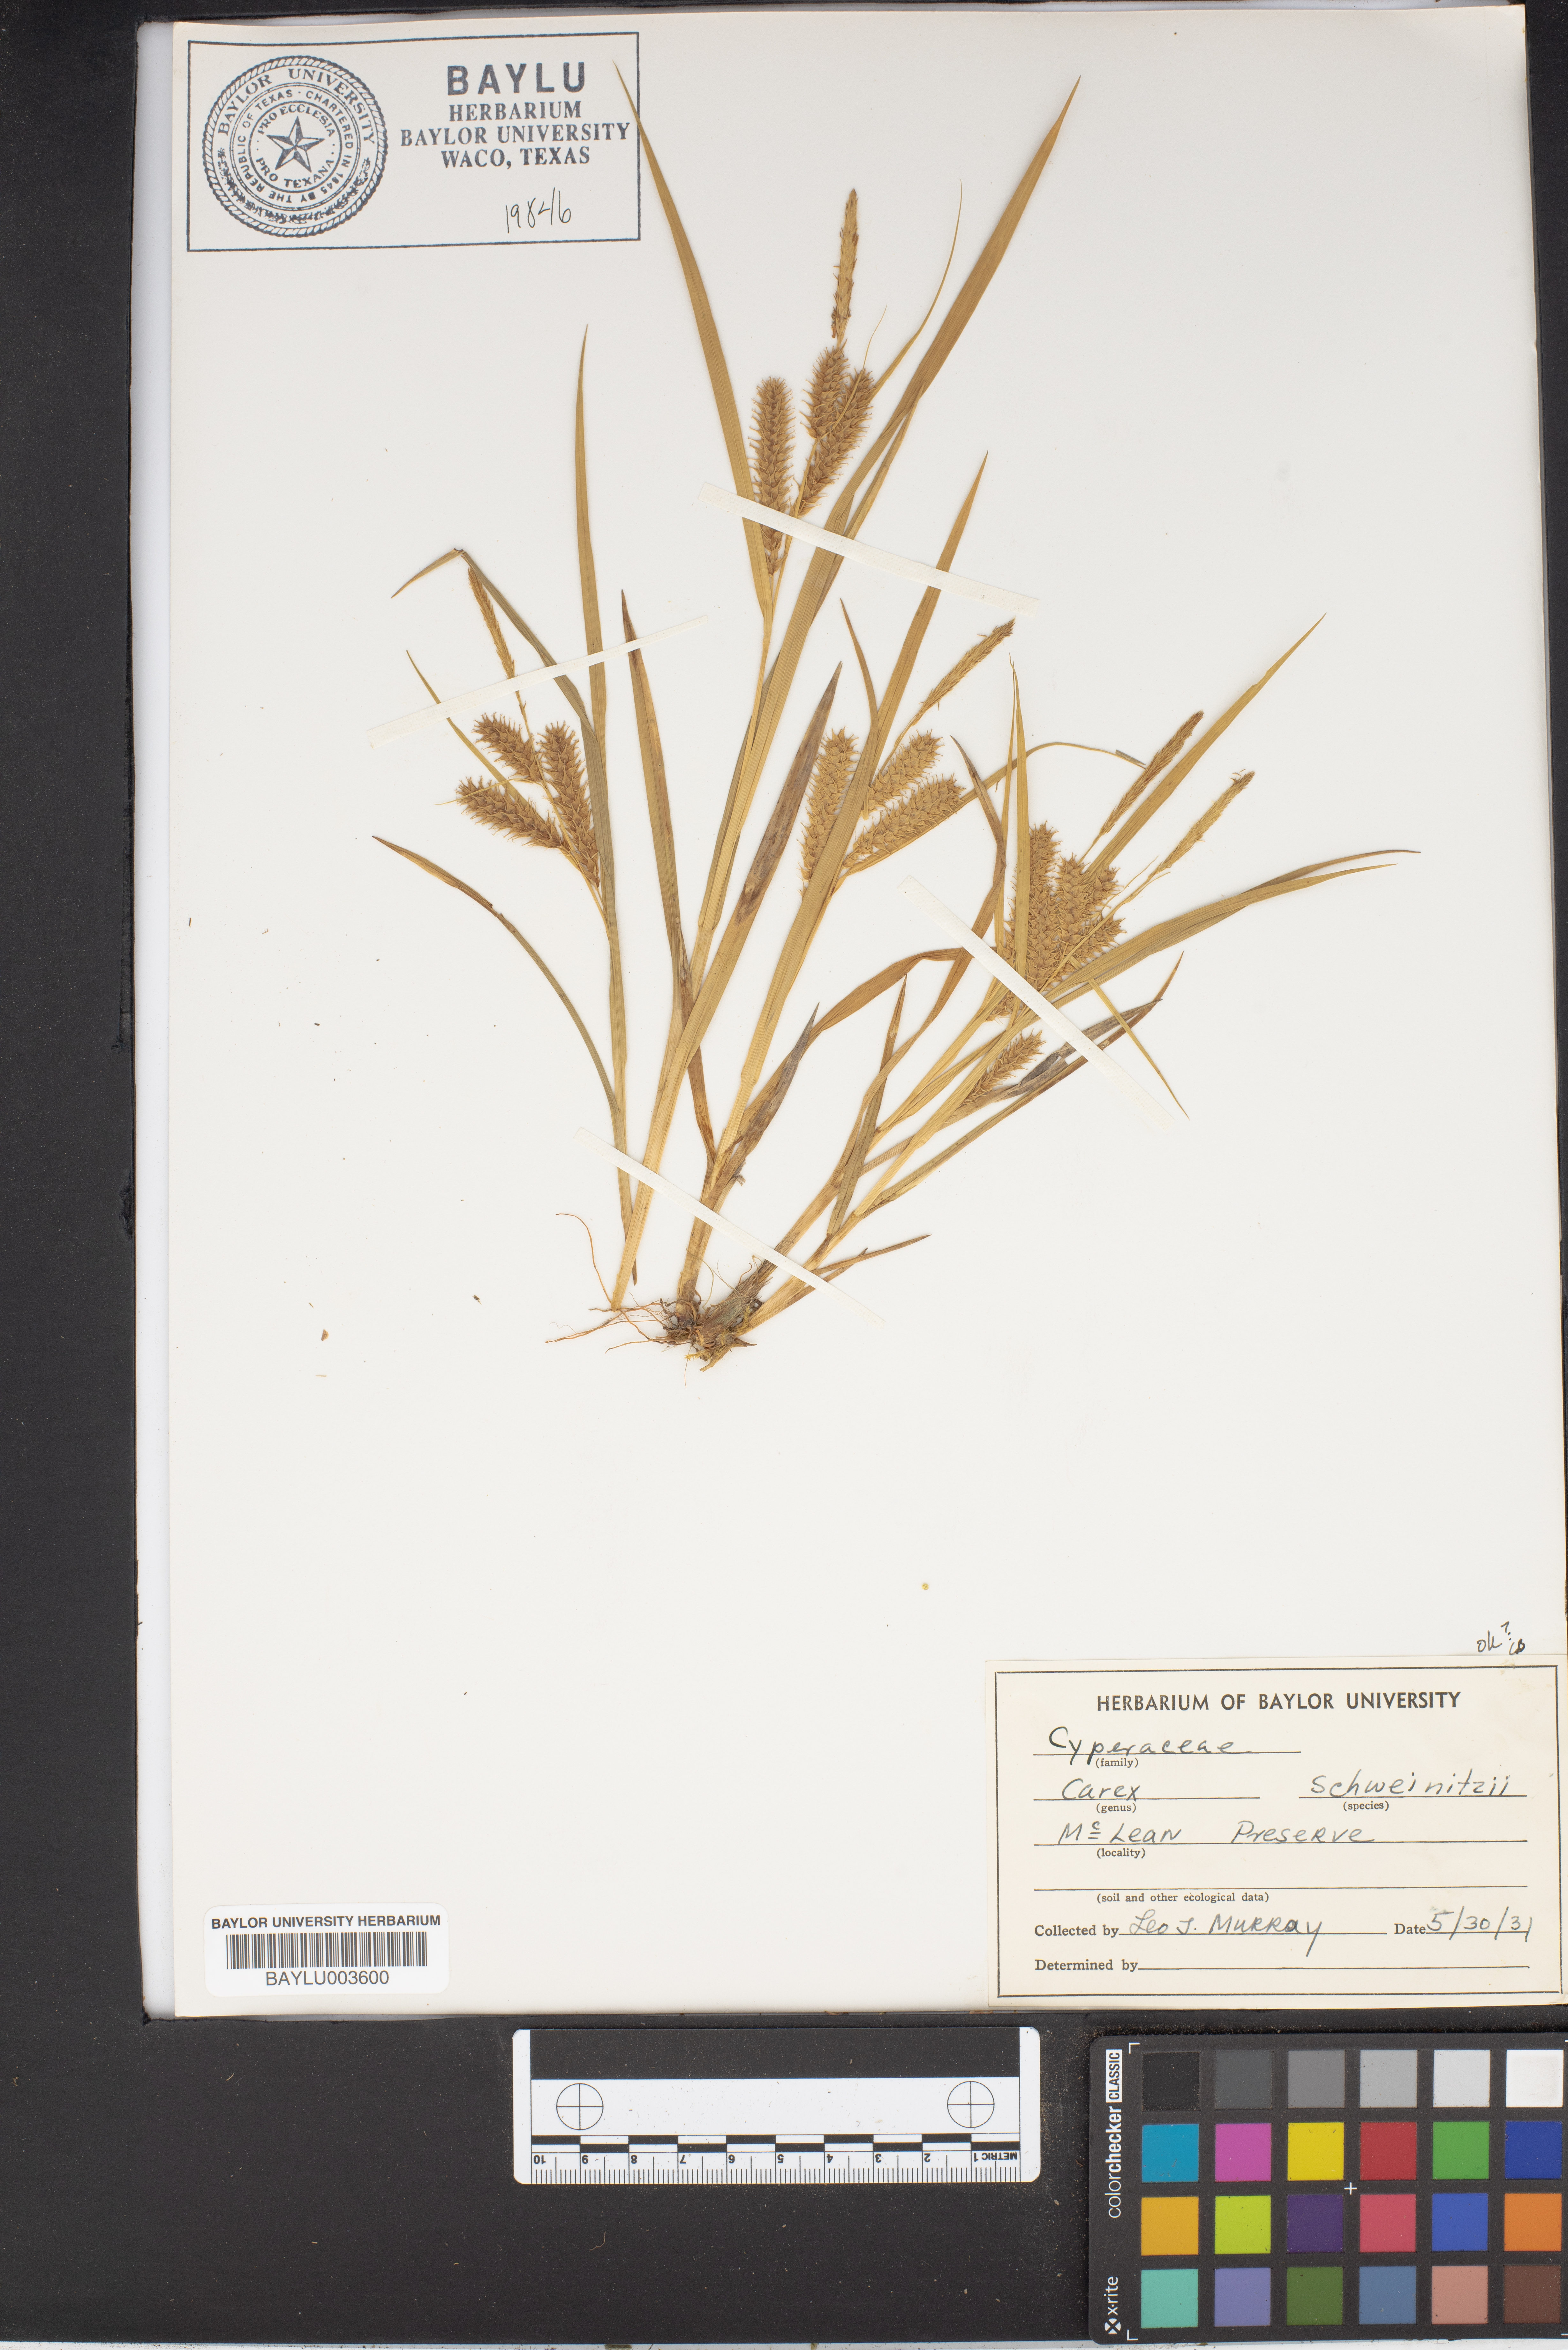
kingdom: Plantae
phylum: Tracheophyta
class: Liliopsida
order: Poales
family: Cyperaceae
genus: Carex
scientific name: Carex schweinitzii
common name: Schweinitz's sedge
